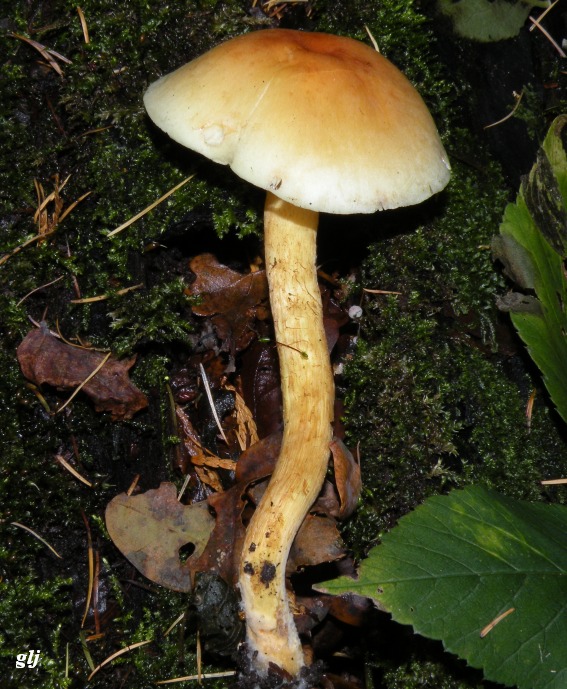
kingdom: Fungi
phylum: Basidiomycota
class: Agaricomycetes
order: Agaricales
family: Strophariaceae
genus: Hypholoma
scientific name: Hypholoma capnoides
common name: gran-svovlhat
